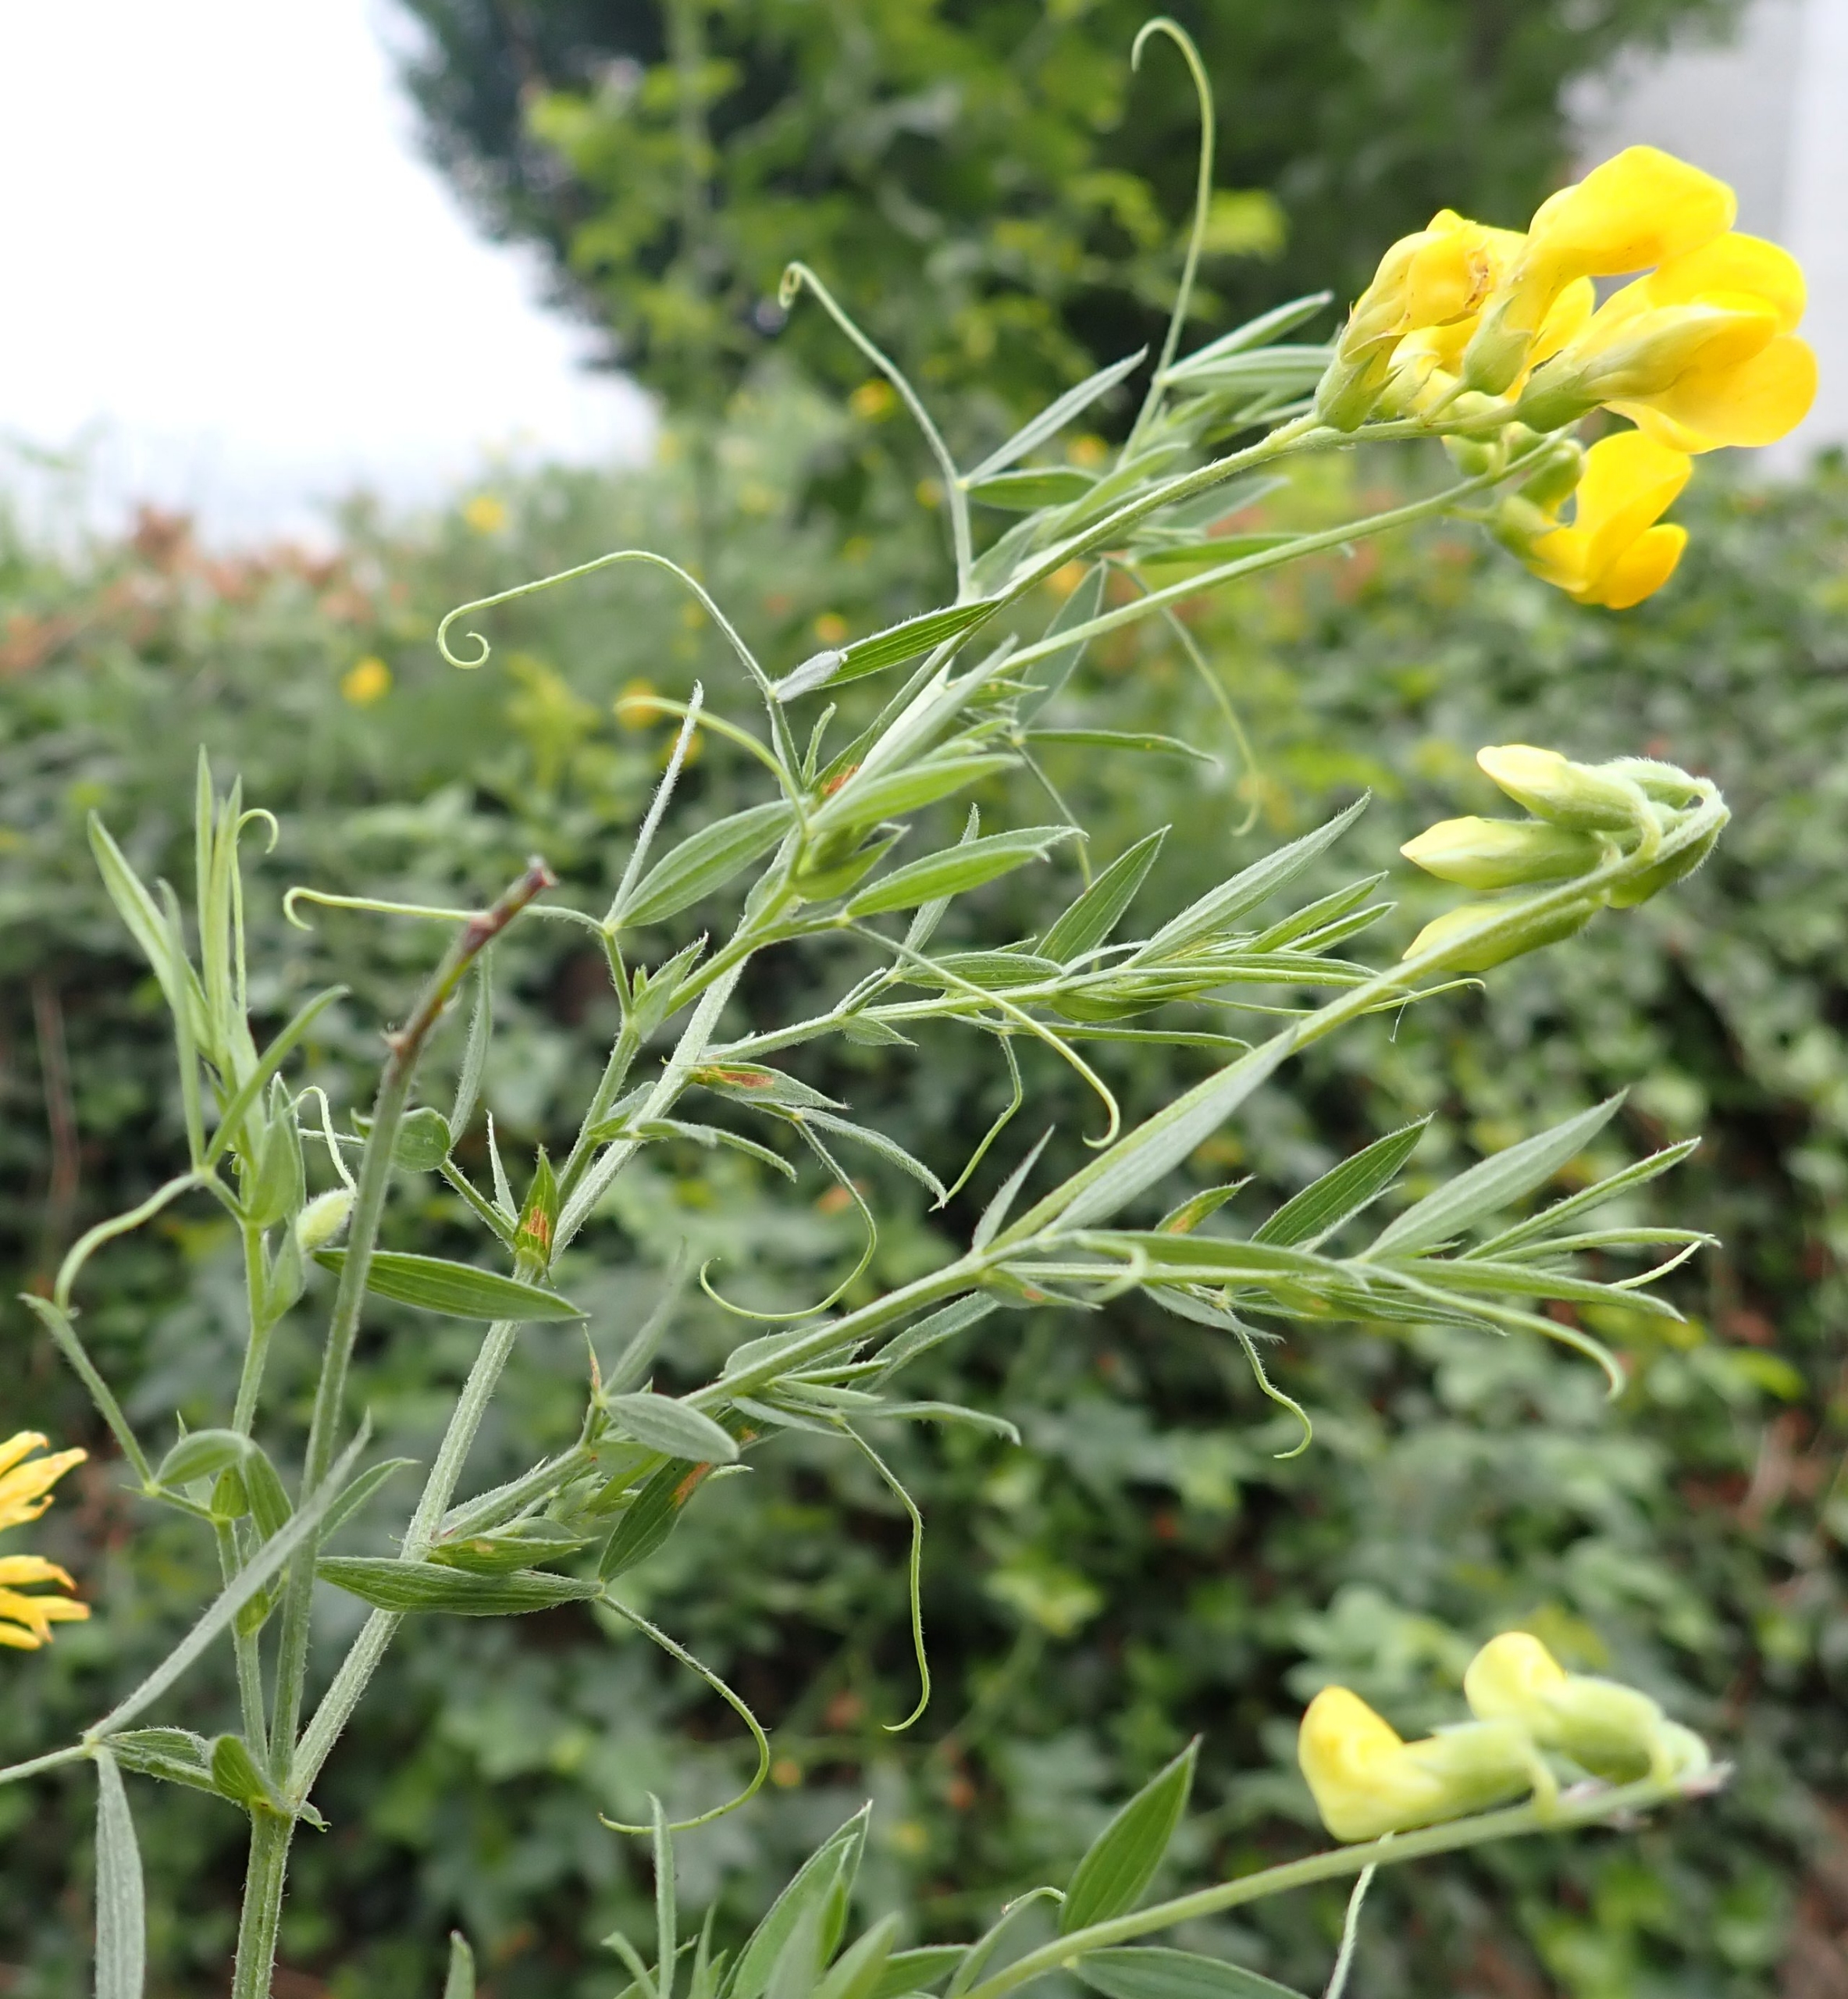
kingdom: Plantae
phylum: Tracheophyta
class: Magnoliopsida
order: Fabales
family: Fabaceae
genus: Lathyrus
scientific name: Lathyrus pratensis
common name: Gul fladbælg
